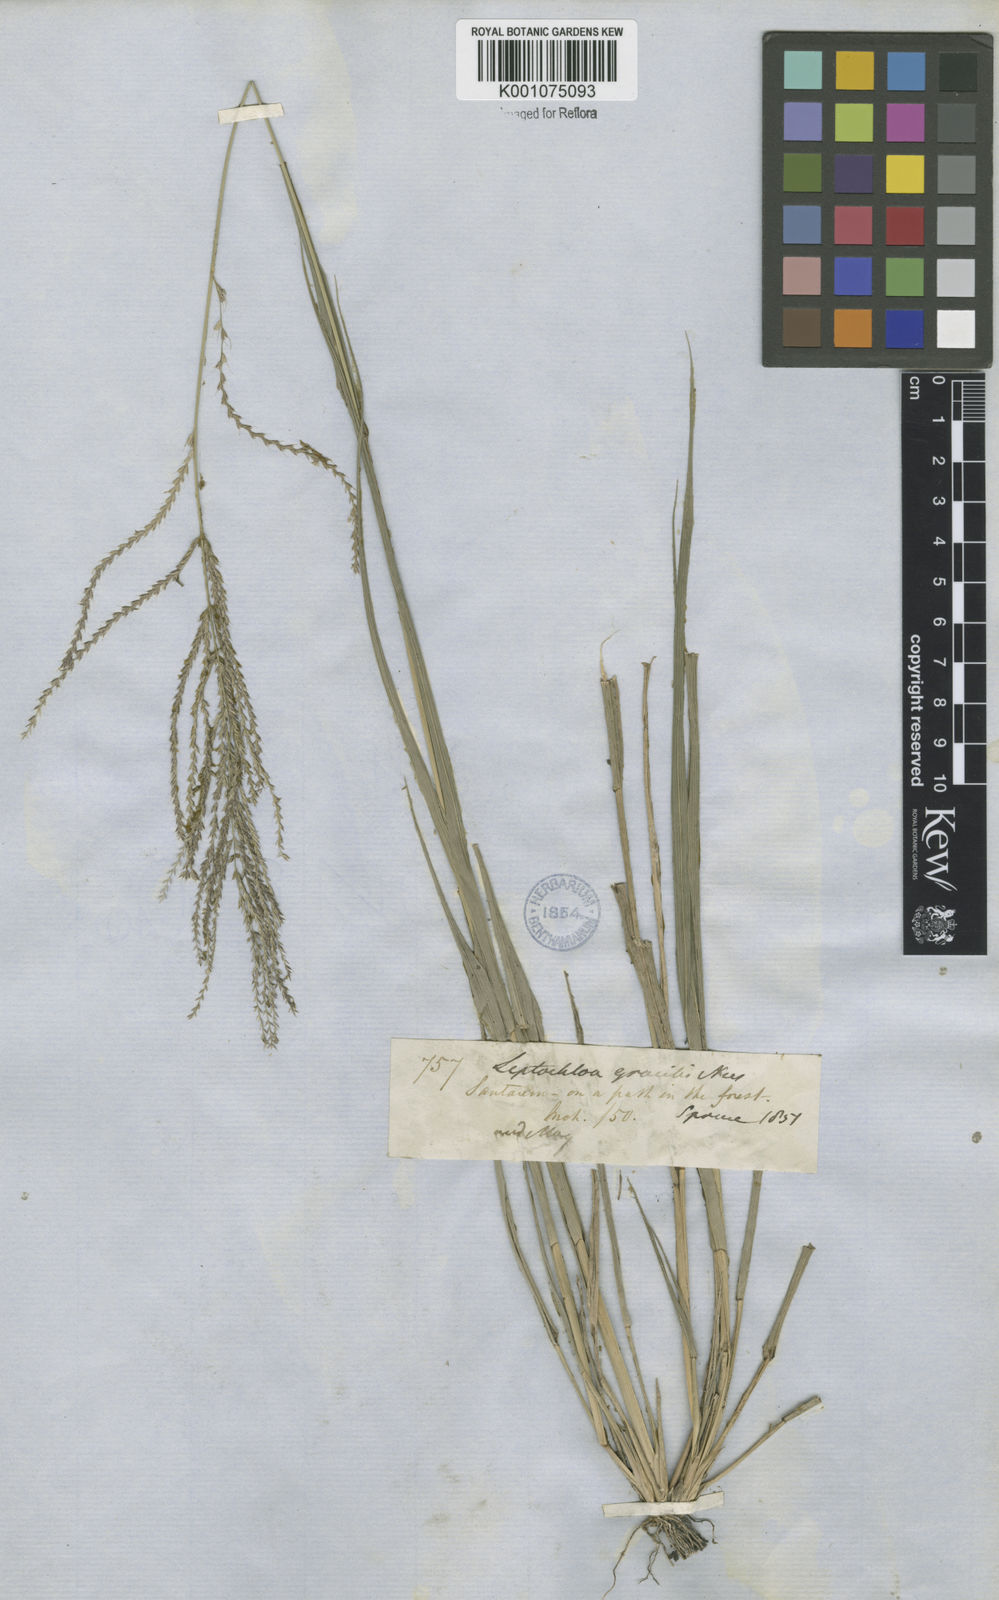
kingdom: Plantae
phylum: Tracheophyta
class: Liliopsida
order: Poales
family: Poaceae
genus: Leptochloa
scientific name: Leptochloa virgata
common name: Tropical sprangletop
